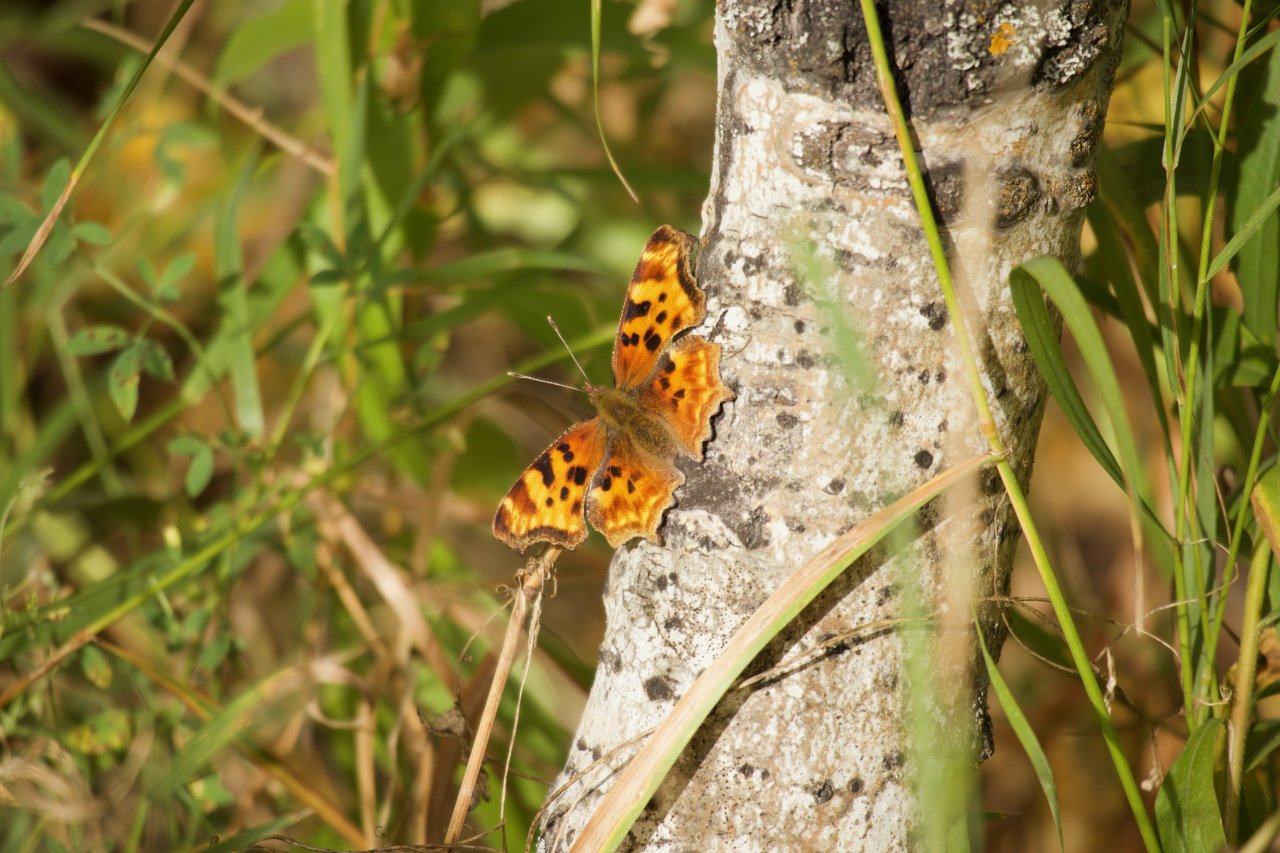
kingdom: Animalia
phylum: Arthropoda
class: Insecta
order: Lepidoptera
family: Nymphalidae
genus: Polygonia
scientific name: Polygonia satyrus
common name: Satyr Comma
